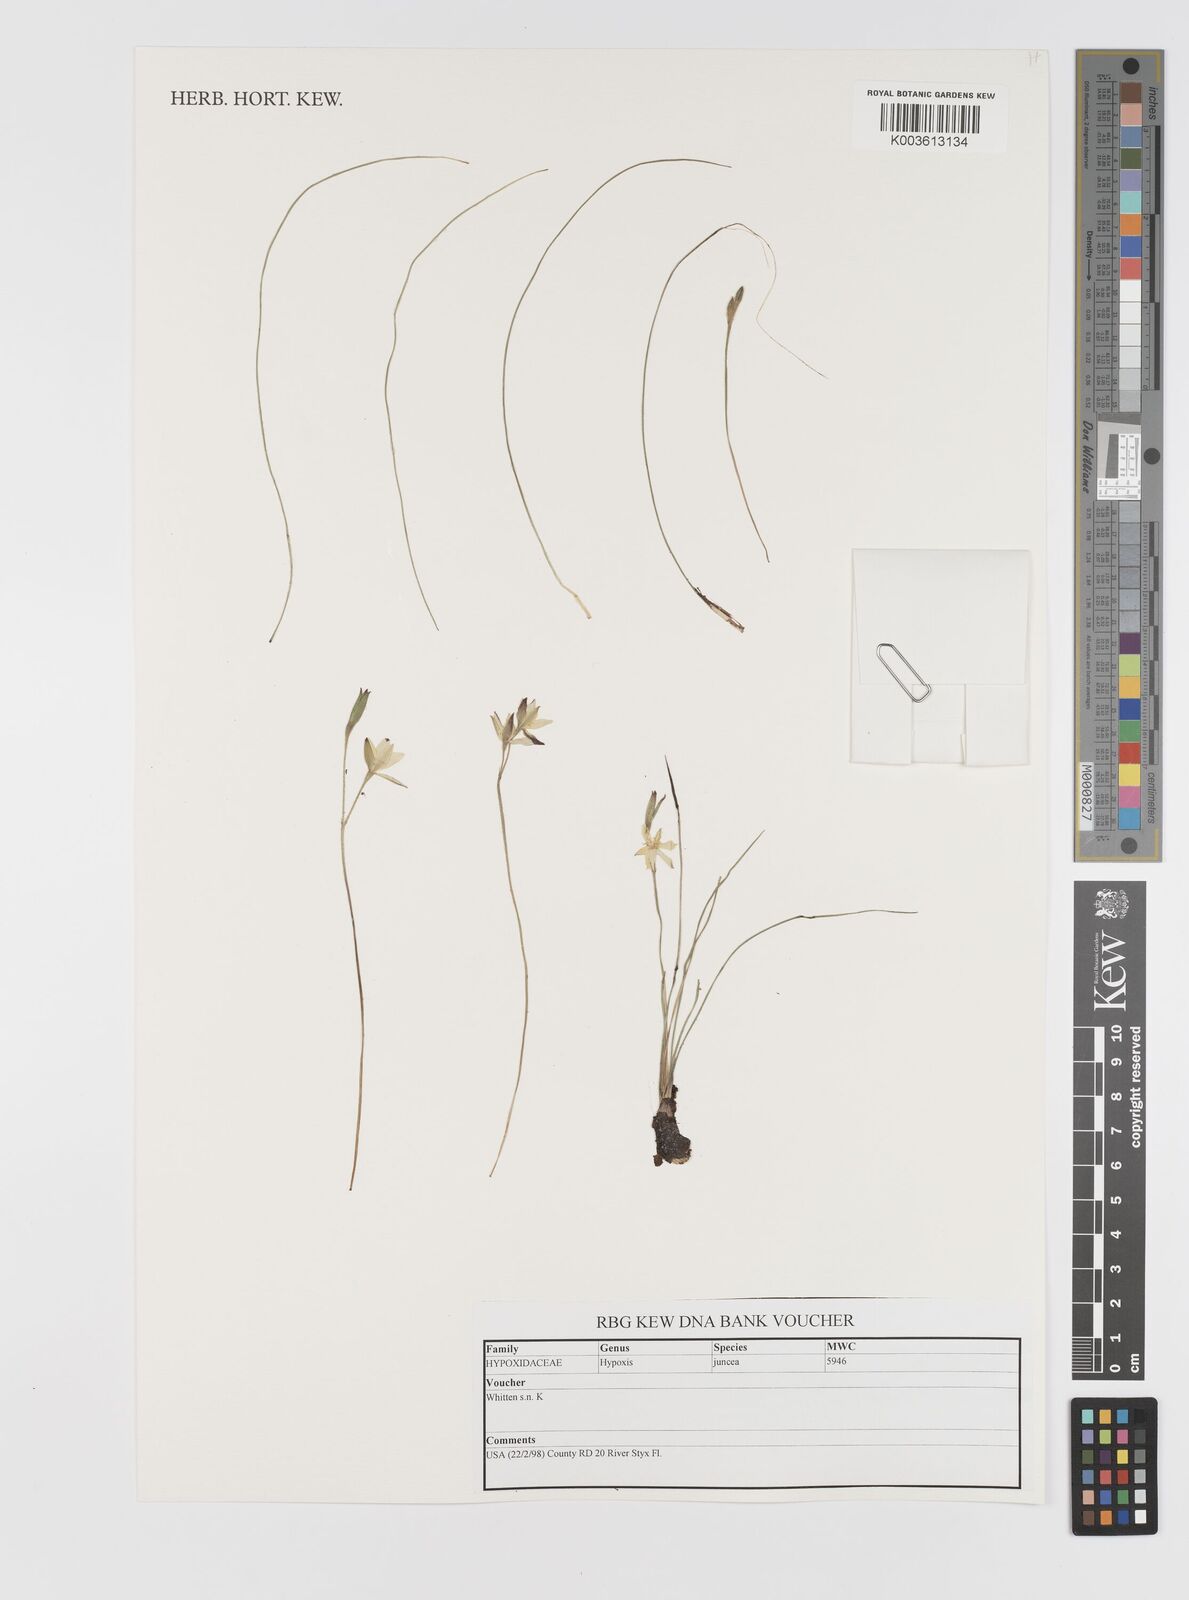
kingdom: Plantae
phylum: Tracheophyta
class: Liliopsida
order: Asparagales
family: Hypoxidaceae
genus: Hypoxis
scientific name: Hypoxis juncea
